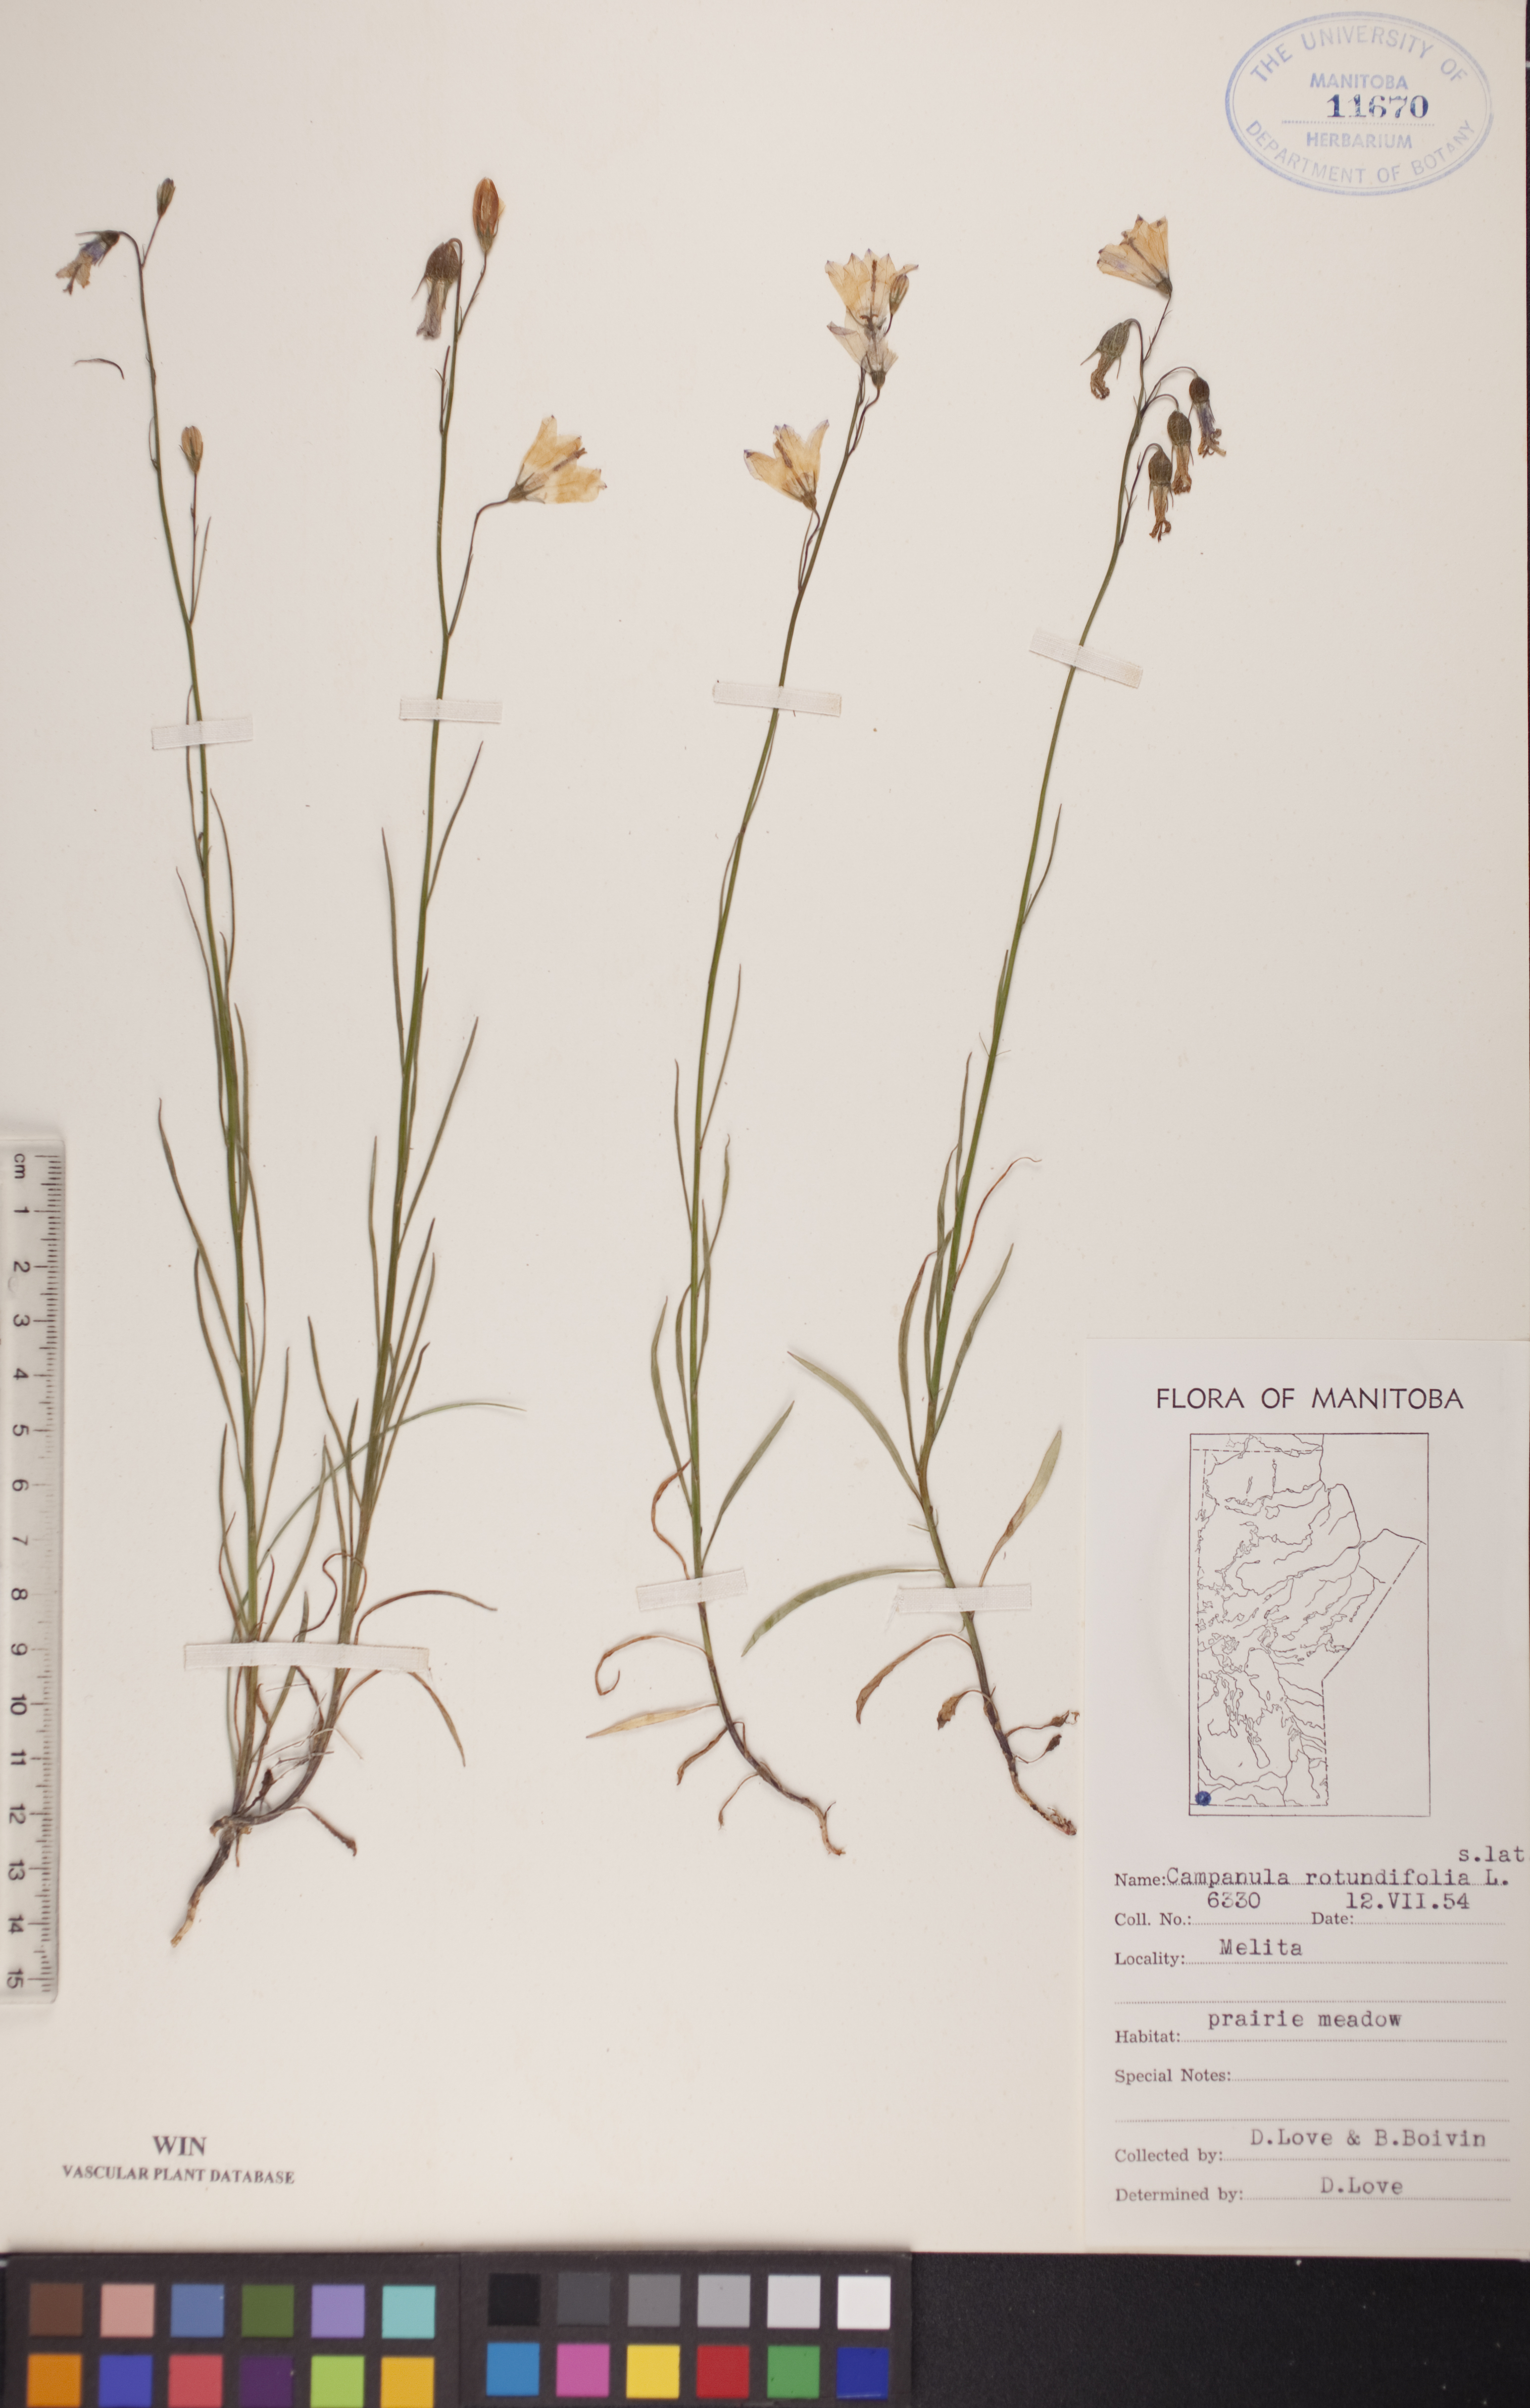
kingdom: Plantae
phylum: Tracheophyta
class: Magnoliopsida
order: Asterales
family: Campanulaceae
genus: Campanula
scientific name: Campanula rotundifolia
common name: Harebell
